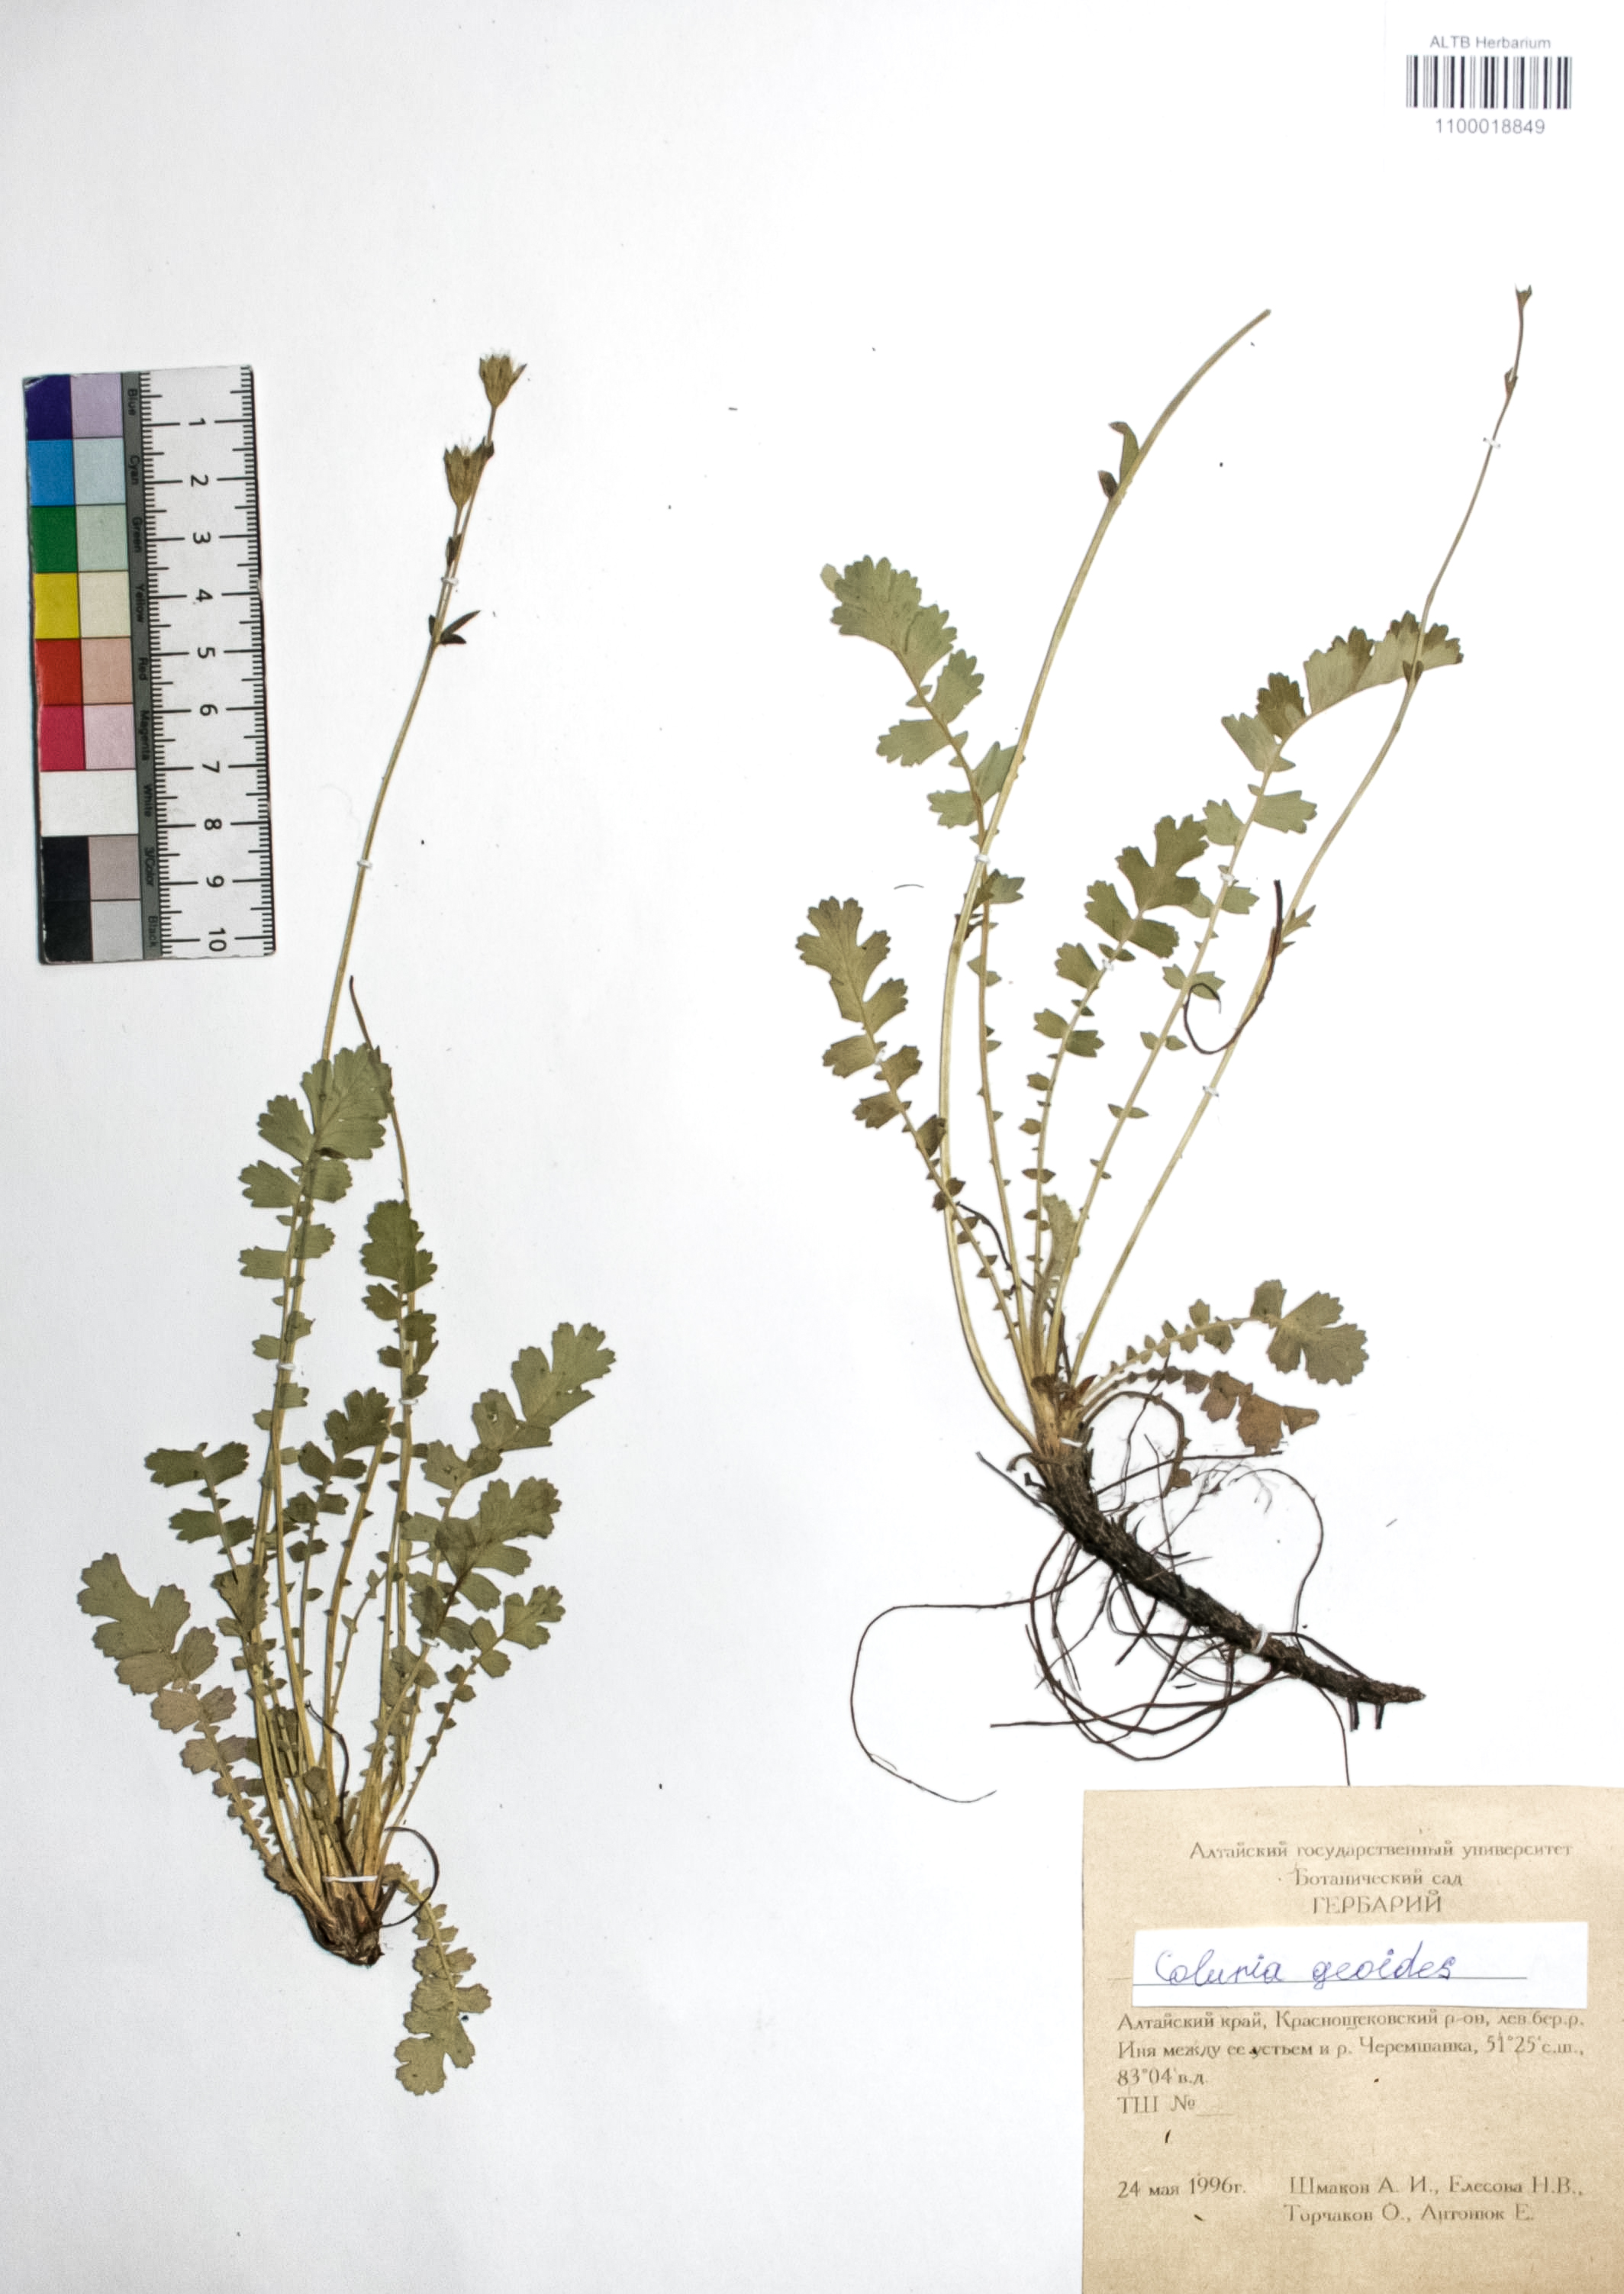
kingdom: Plantae
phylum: Tracheophyta
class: Magnoliopsida
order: Rosales
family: Rosaceae
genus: Geum
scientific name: Geum geoides
